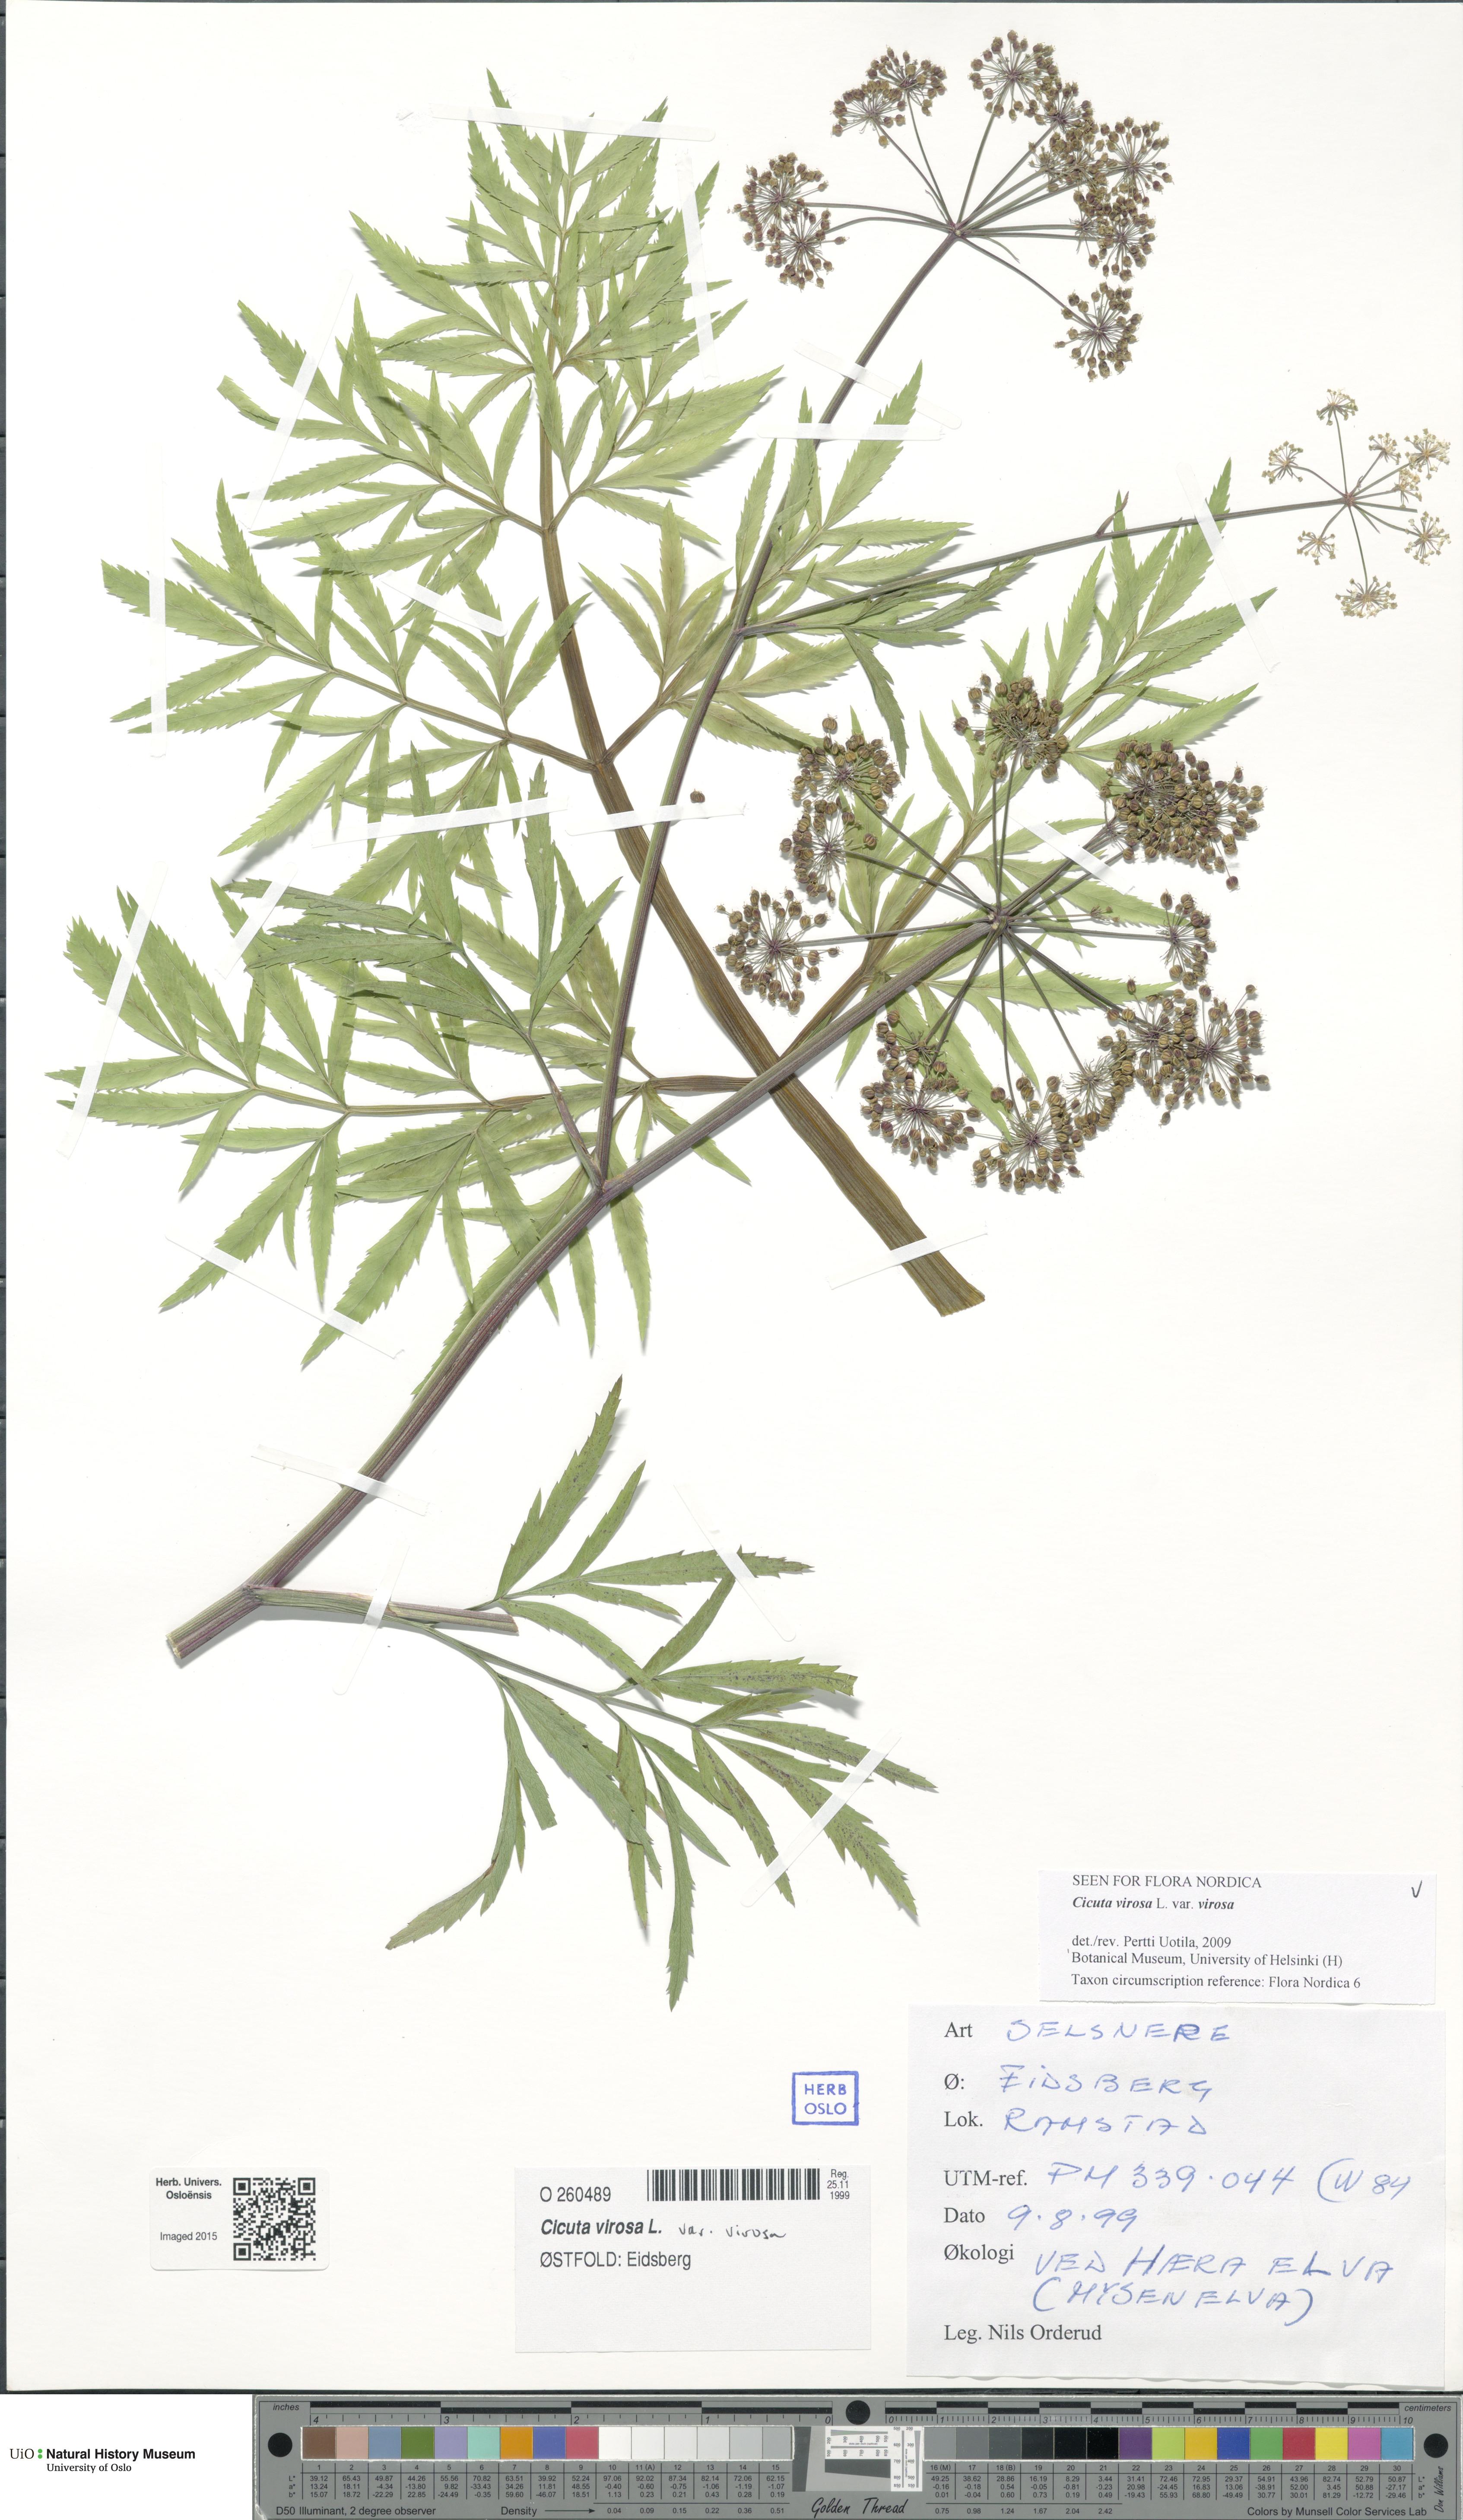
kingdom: Plantae
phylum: Tracheophyta
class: Magnoliopsida
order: Apiales
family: Apiaceae
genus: Cicuta
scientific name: Cicuta virosa
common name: Cowbane
